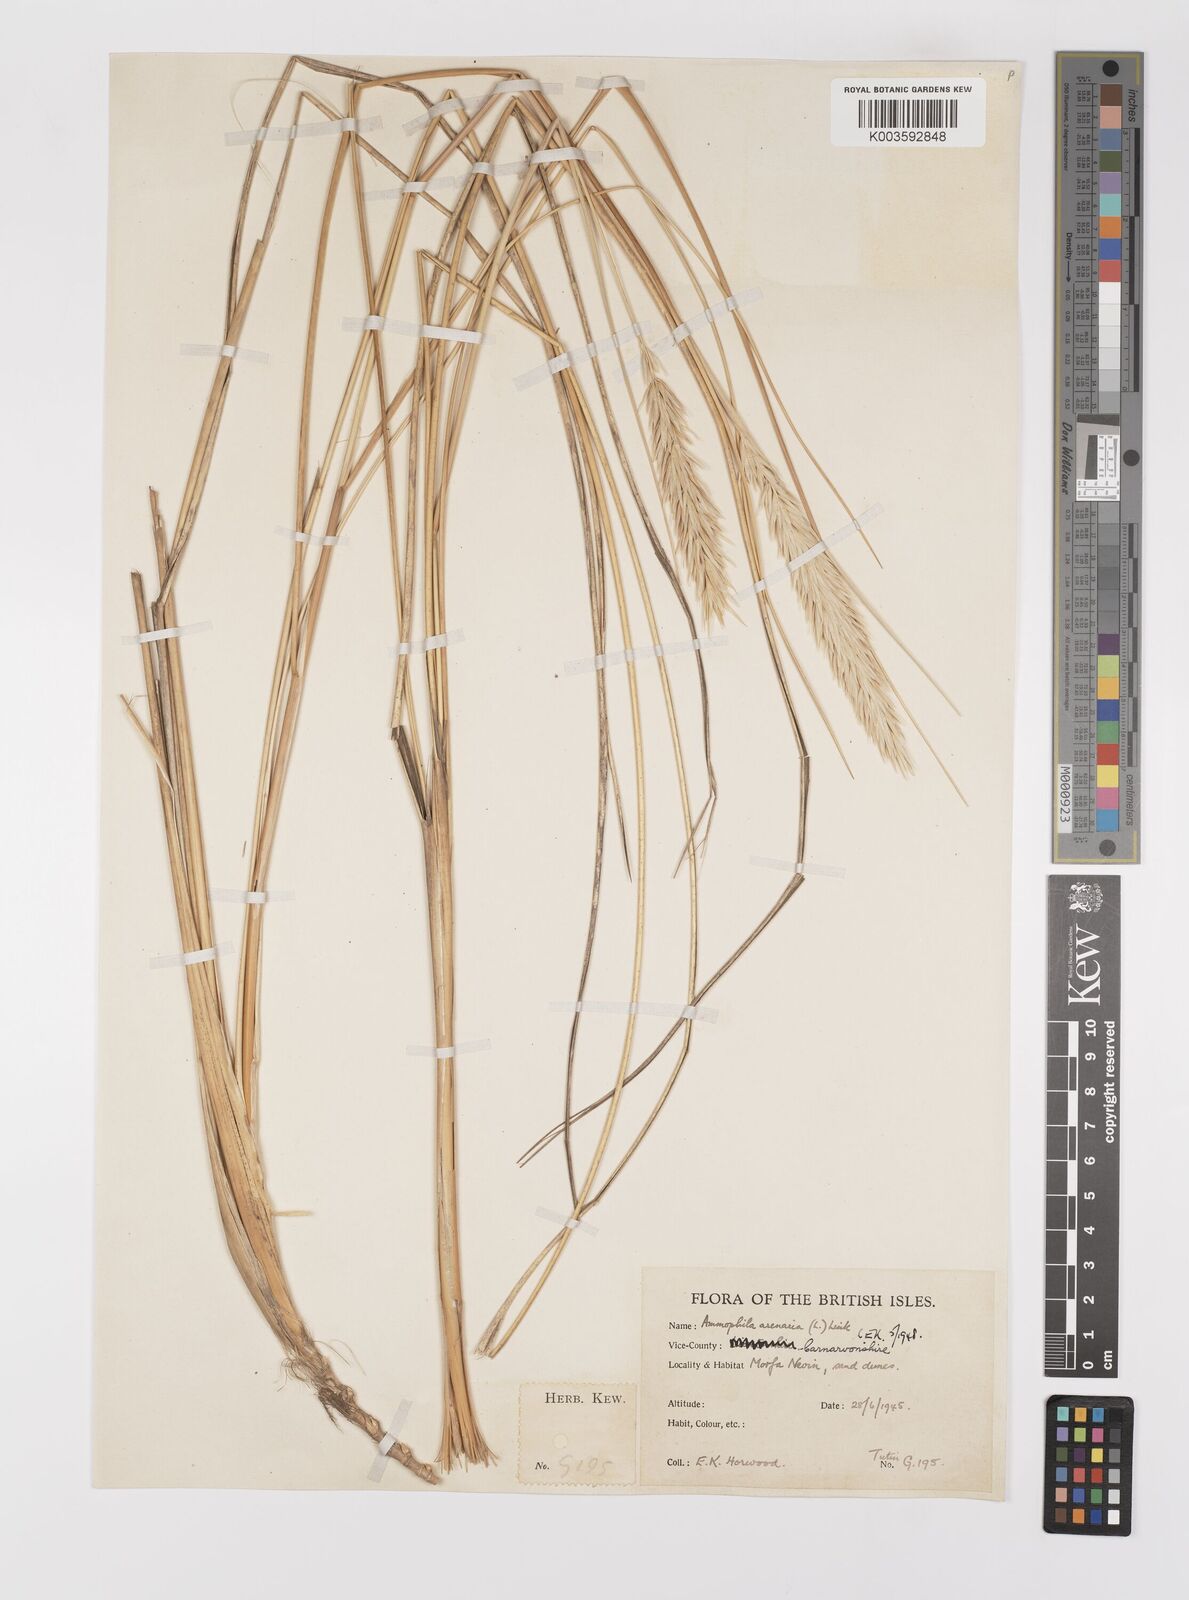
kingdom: Plantae
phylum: Tracheophyta
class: Liliopsida
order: Poales
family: Poaceae
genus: Calamagrostis
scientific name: Calamagrostis arenaria
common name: European beachgrass
